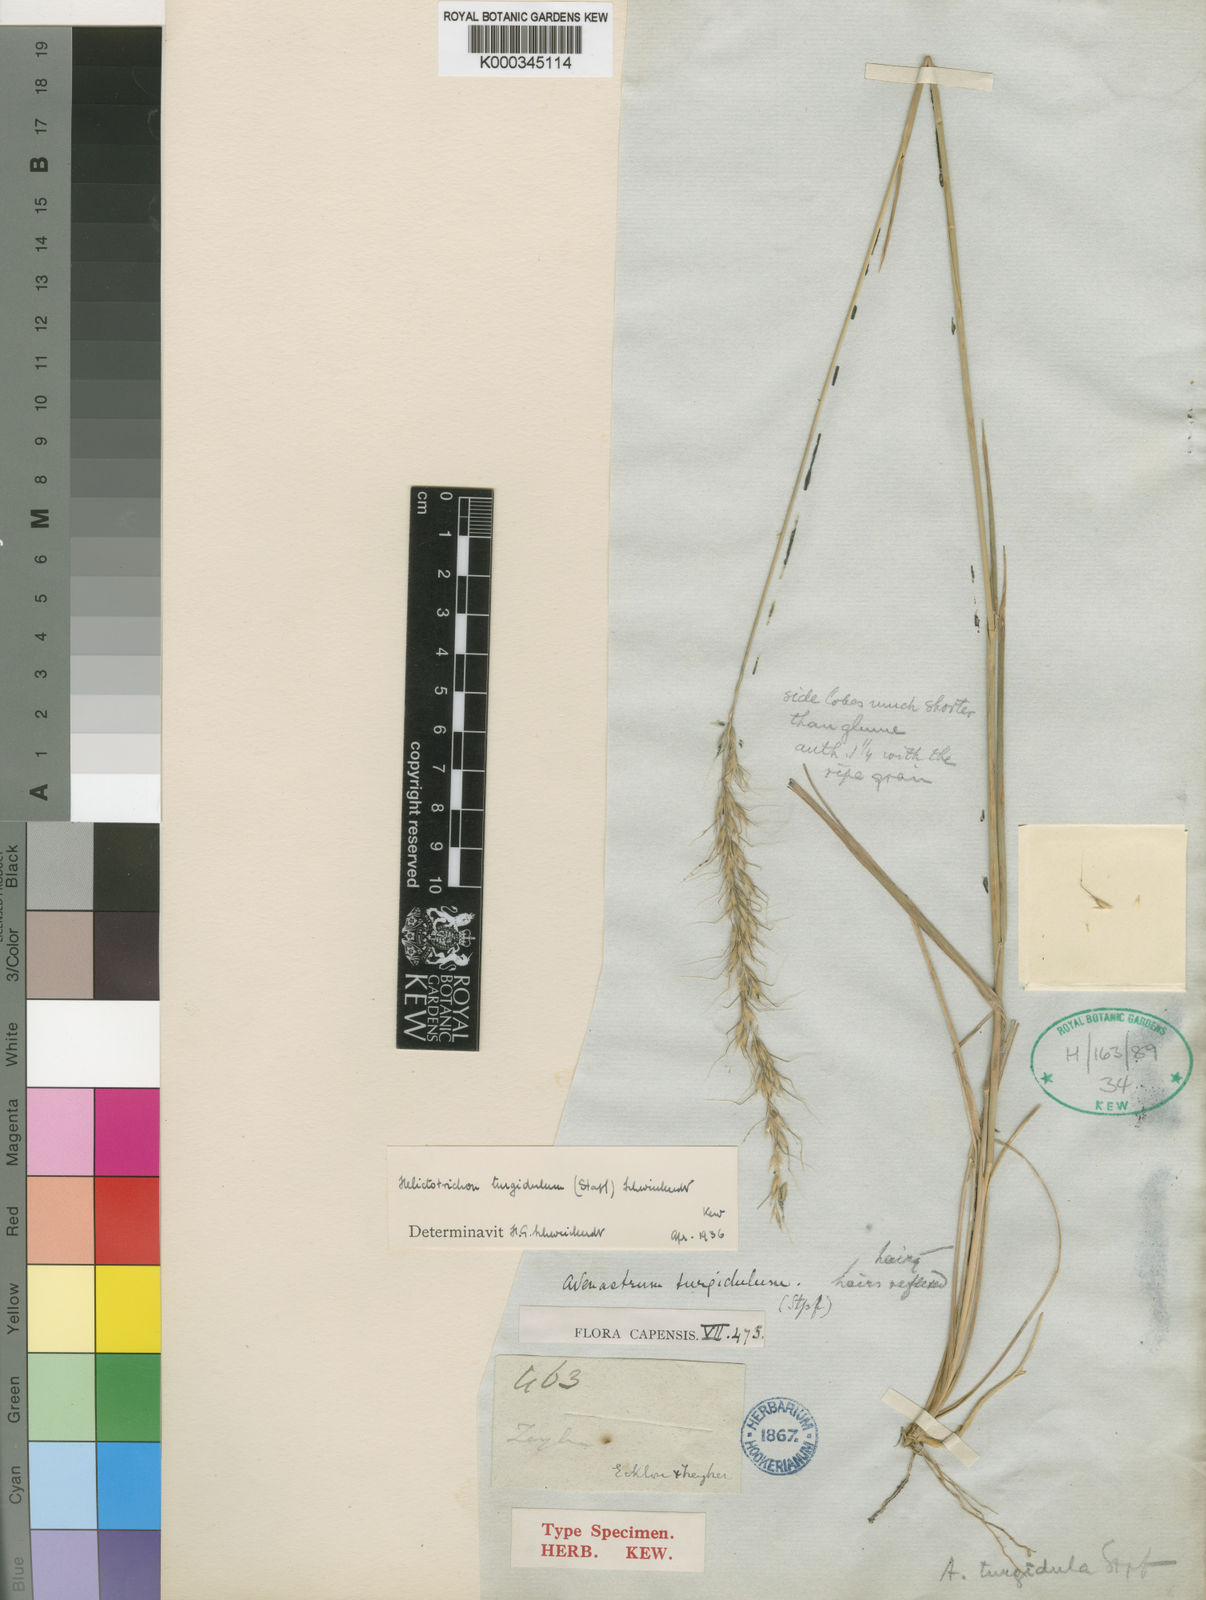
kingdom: Plantae
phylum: Tracheophyta
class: Liliopsida
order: Poales
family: Poaceae
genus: Trisetopsis
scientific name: Trisetopsis imberbis
